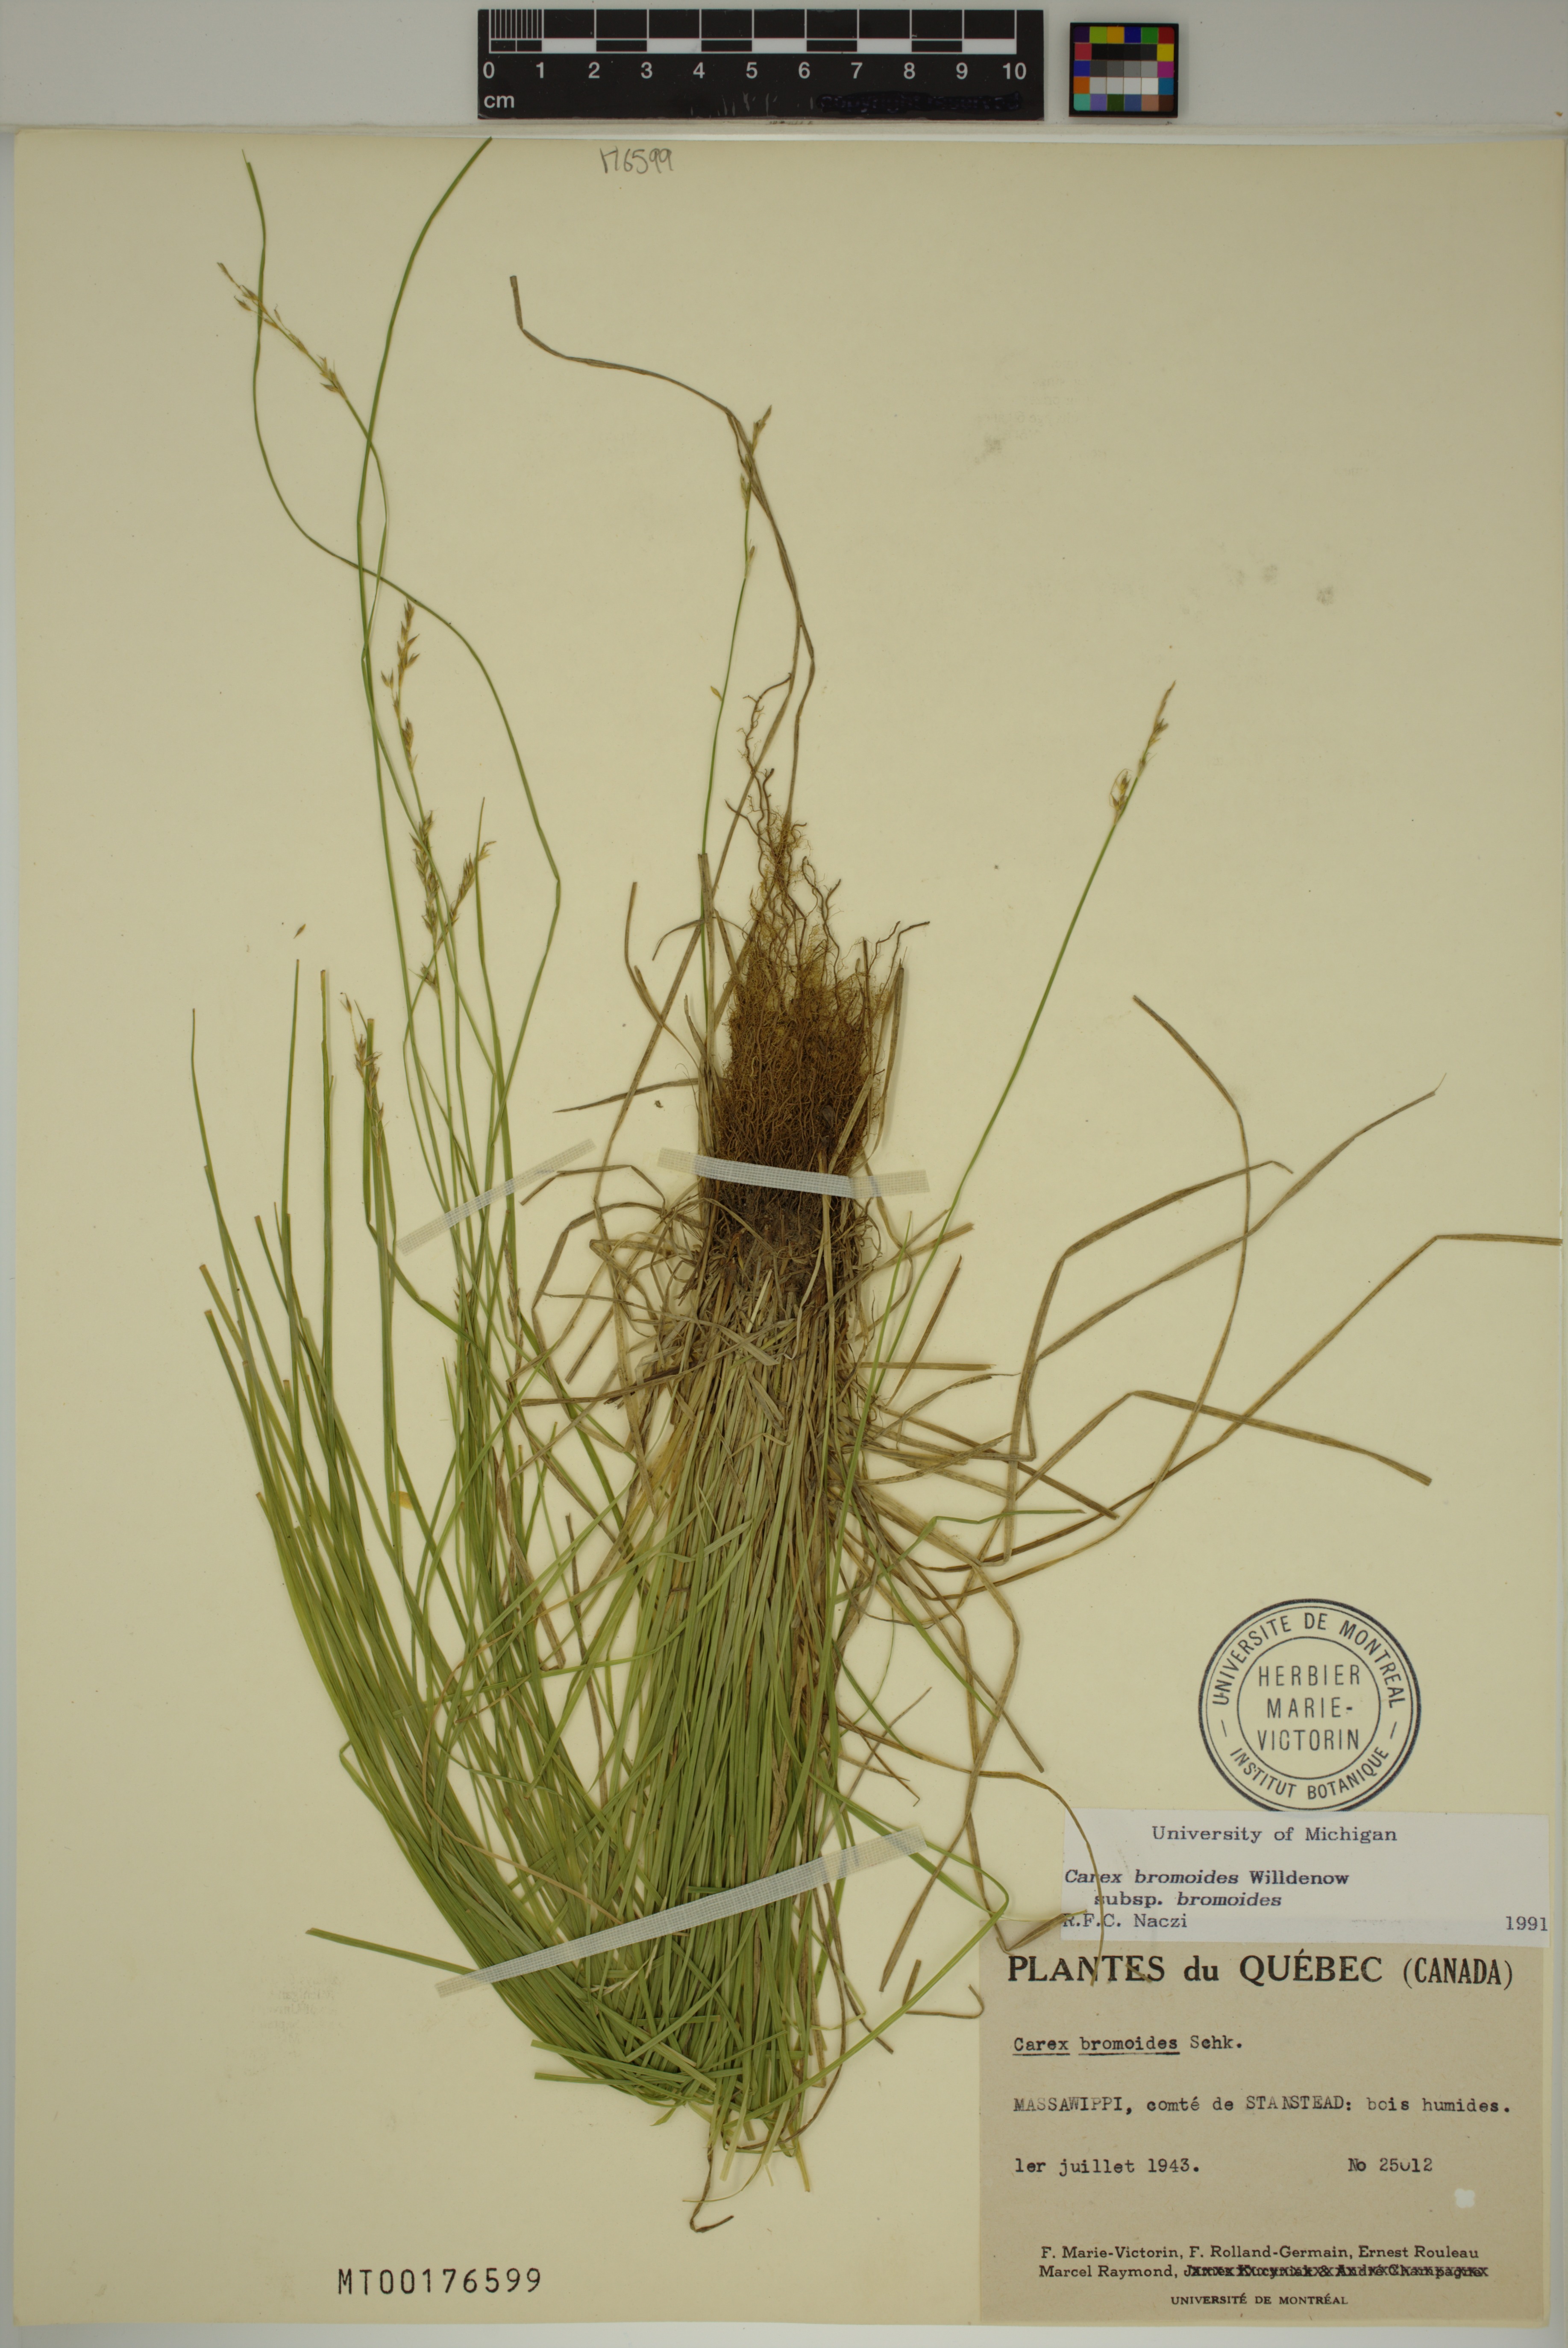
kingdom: Plantae
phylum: Tracheophyta
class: Liliopsida
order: Poales
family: Cyperaceae
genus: Carex
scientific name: Carex bromoides
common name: Brome hummock sedge
